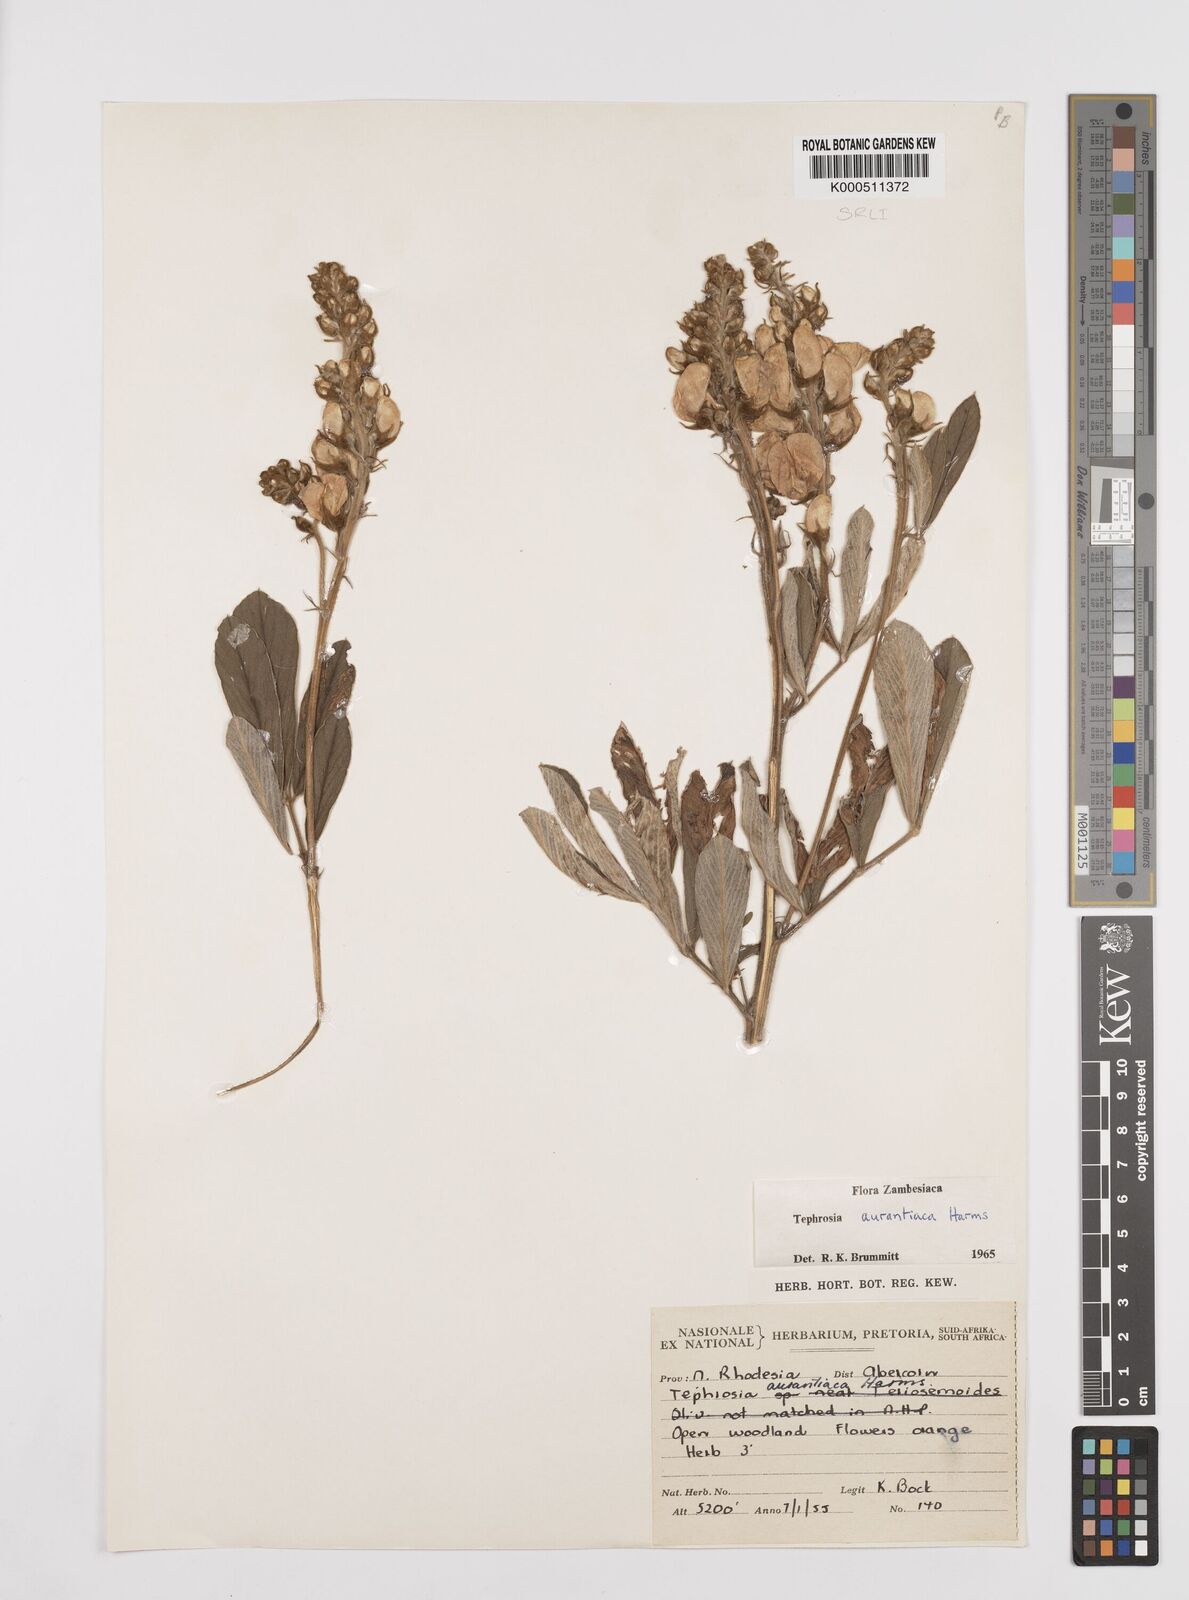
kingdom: Plantae
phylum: Tracheophyta
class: Magnoliopsida
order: Fabales
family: Fabaceae
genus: Tephrosia
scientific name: Tephrosia aurantiaca
